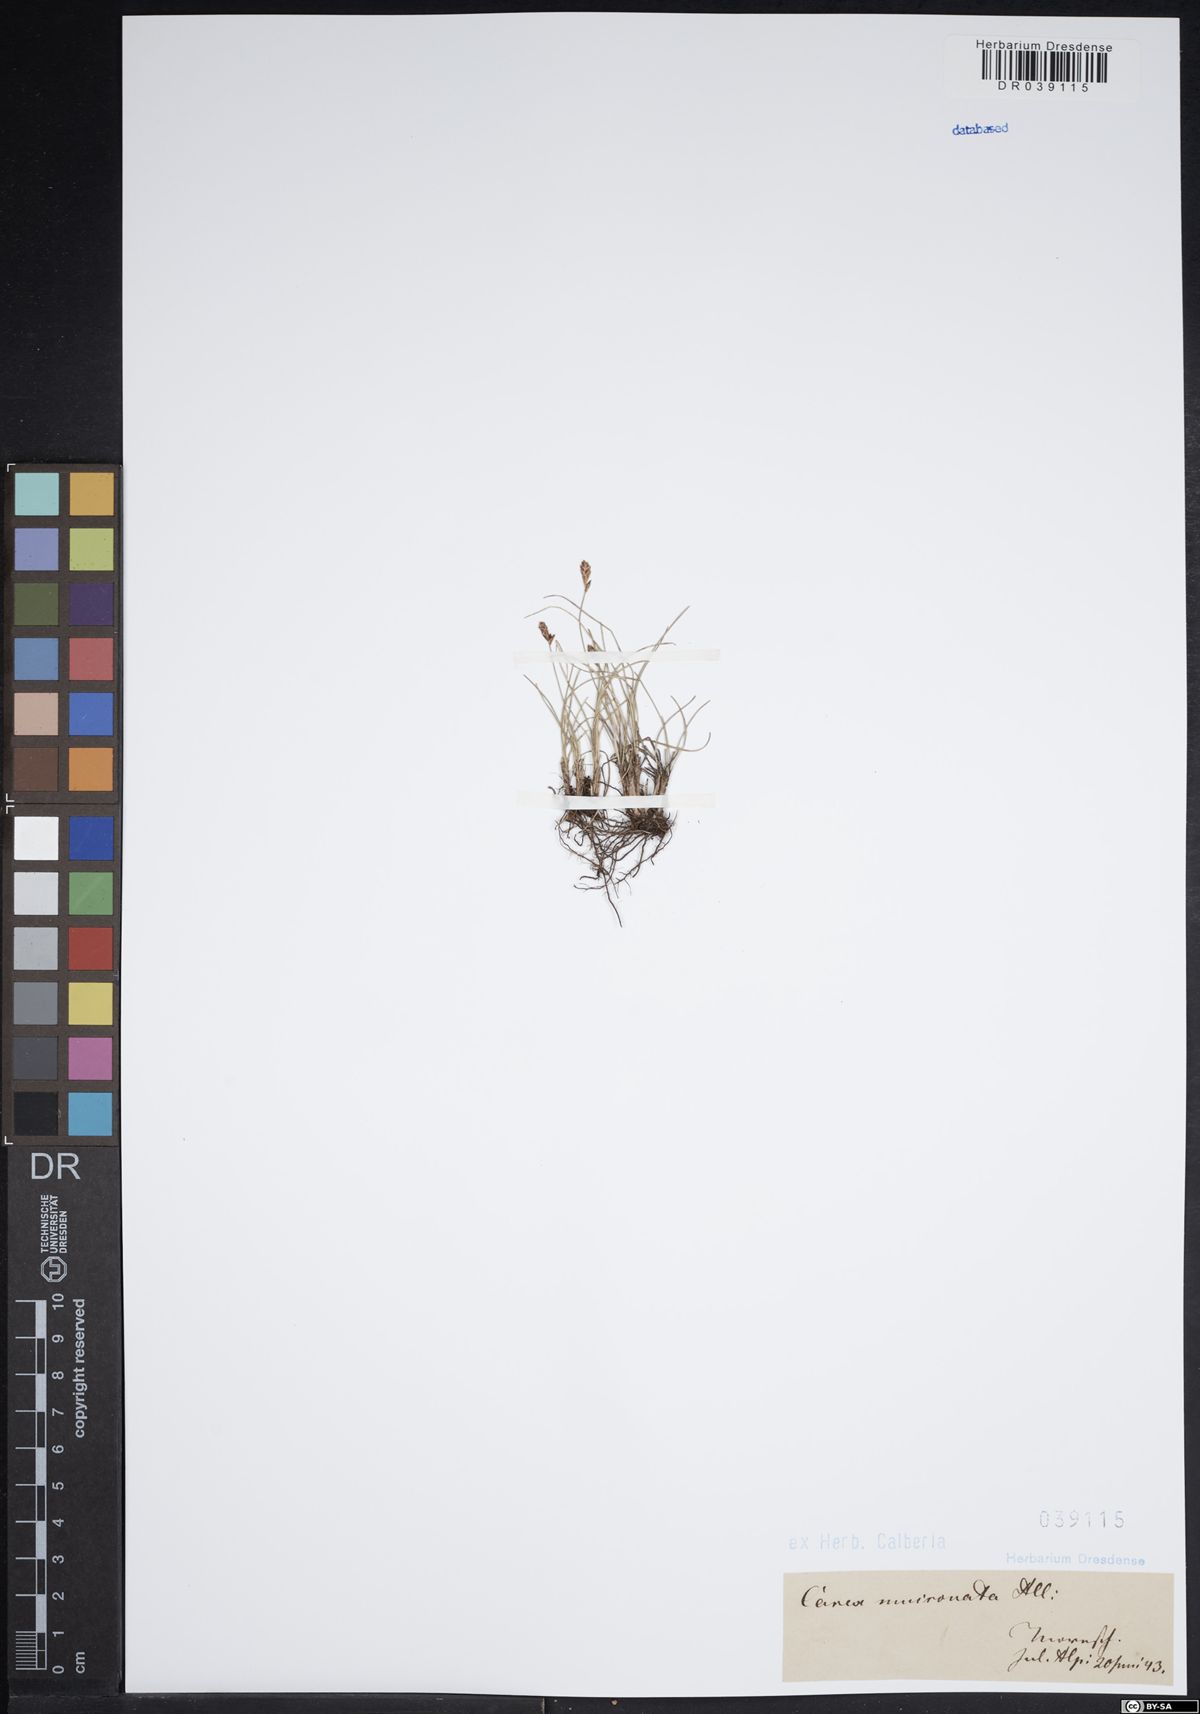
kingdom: Plantae
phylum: Tracheophyta
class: Liliopsida
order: Poales
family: Cyperaceae
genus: Carex
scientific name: Carex mucronata
